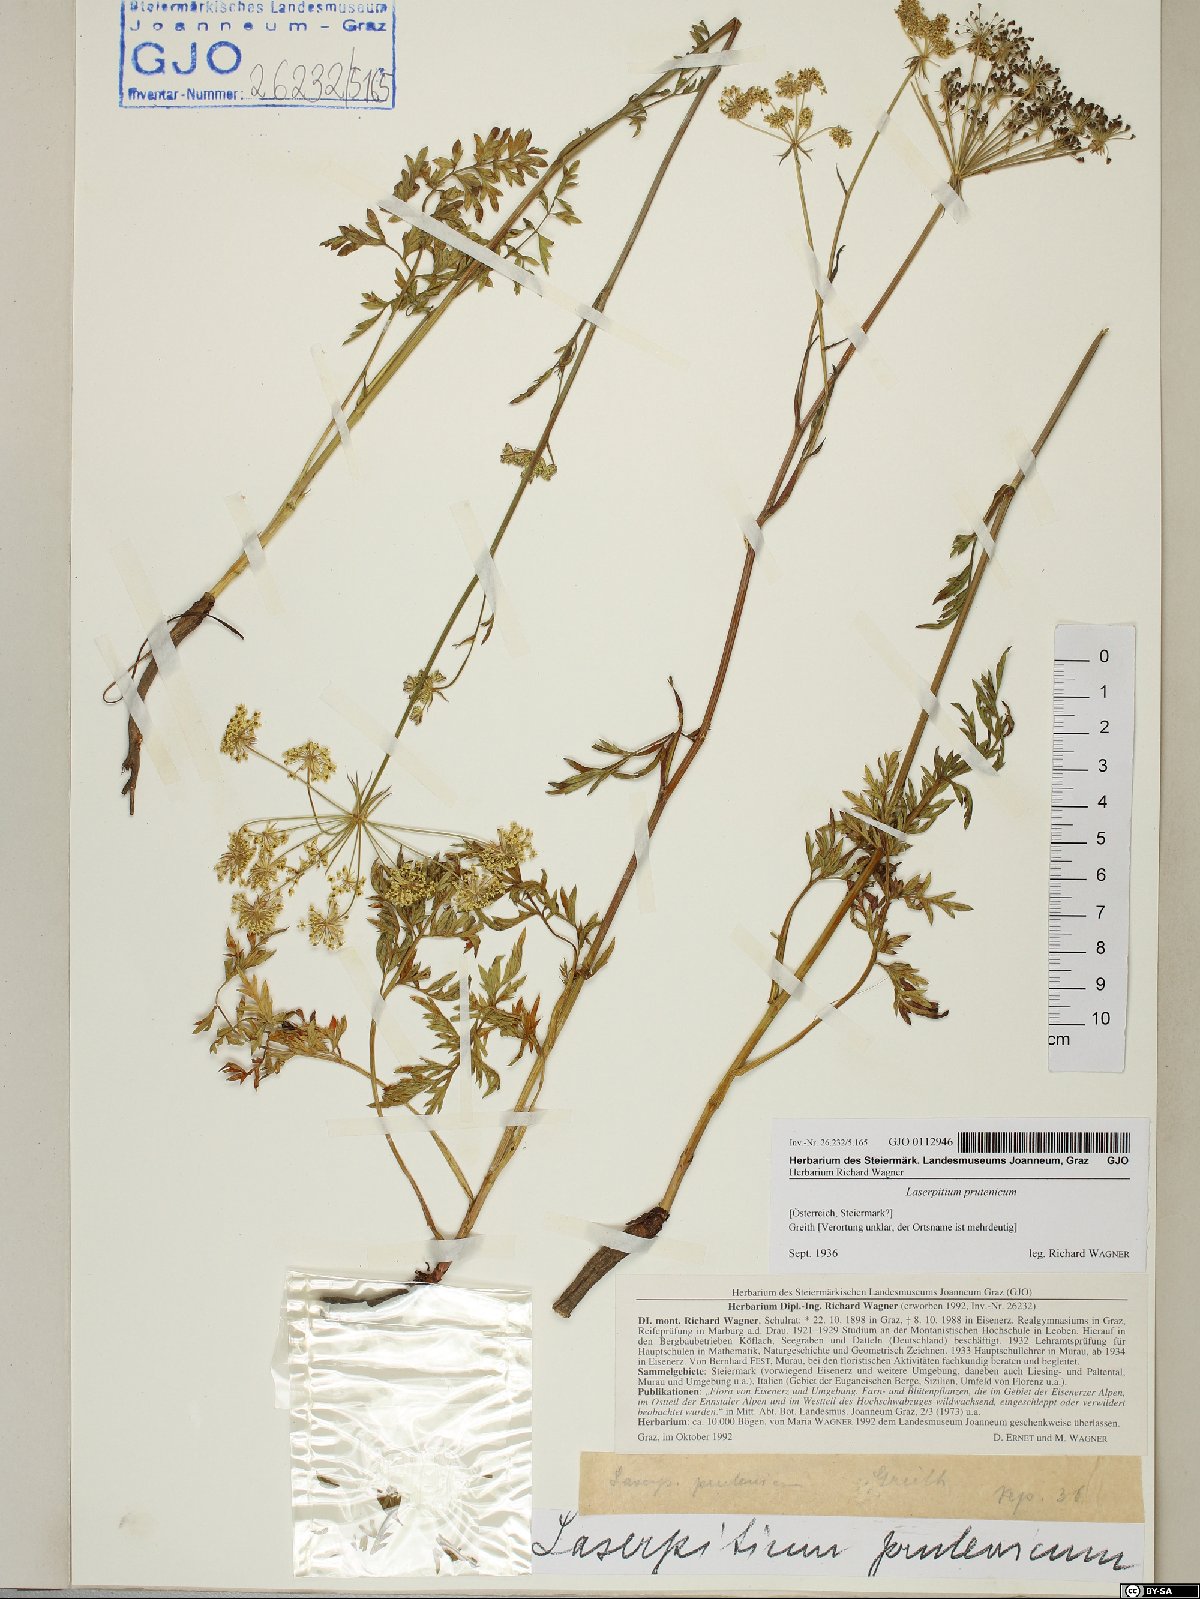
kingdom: Plantae
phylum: Tracheophyta
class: Magnoliopsida
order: Apiales
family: Apiaceae
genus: Silphiodaucus
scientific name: Silphiodaucus prutenicus
